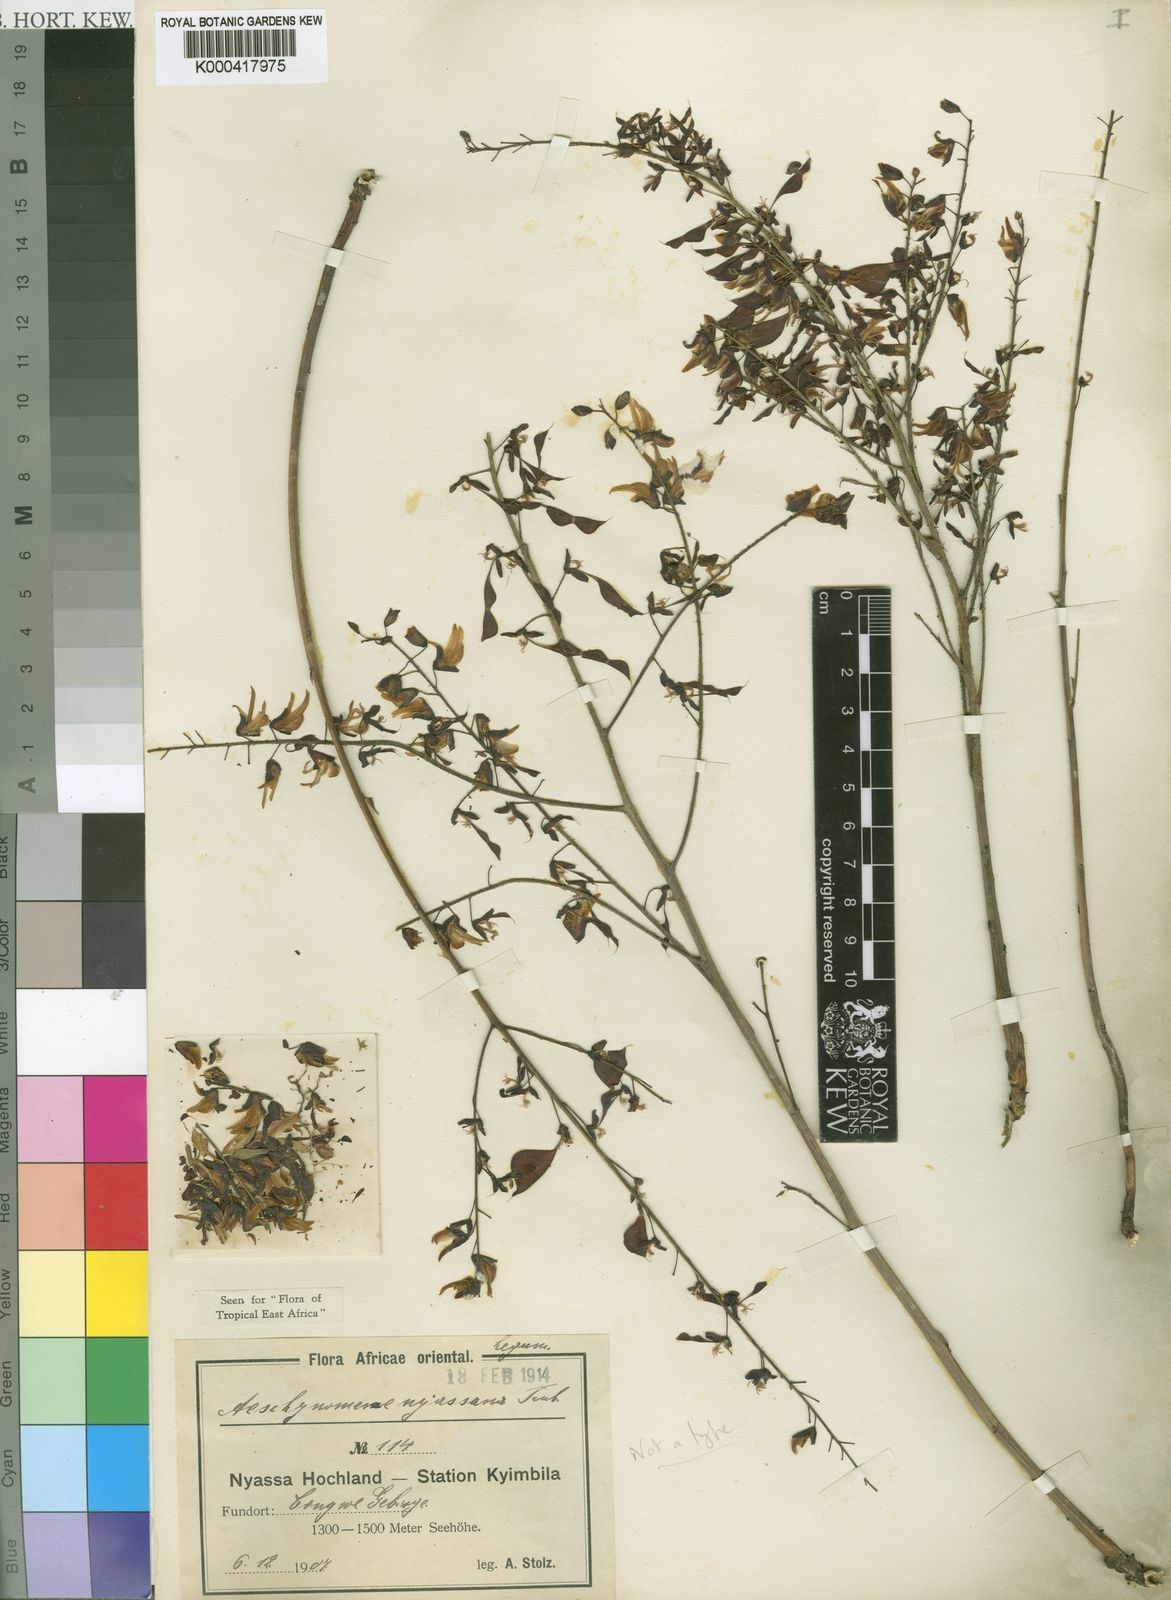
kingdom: Plantae
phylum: Tracheophyta
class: Magnoliopsida
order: Fabales
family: Fabaceae
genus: Aeschynomene
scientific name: Aeschynomene nyassana
